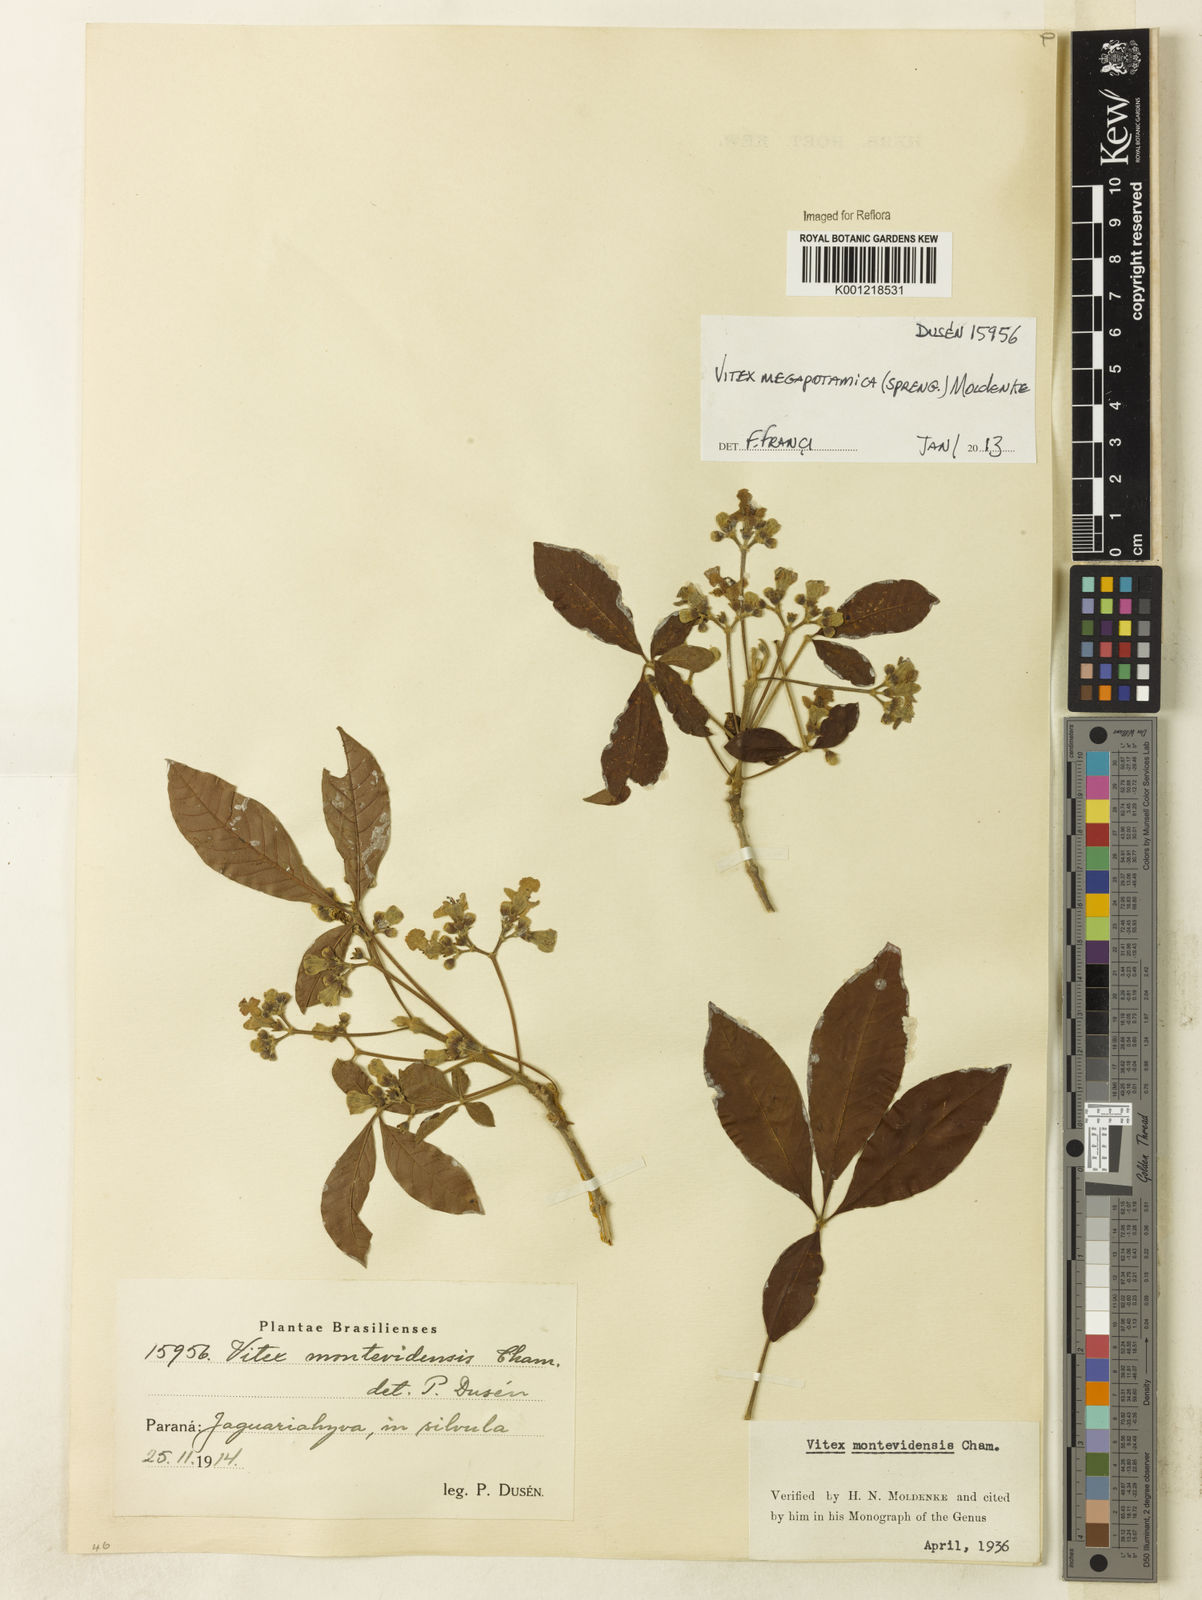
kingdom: Plantae
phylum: Tracheophyta
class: Magnoliopsida
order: Lamiales
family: Lamiaceae
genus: Vitex
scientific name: Vitex megapotamica
